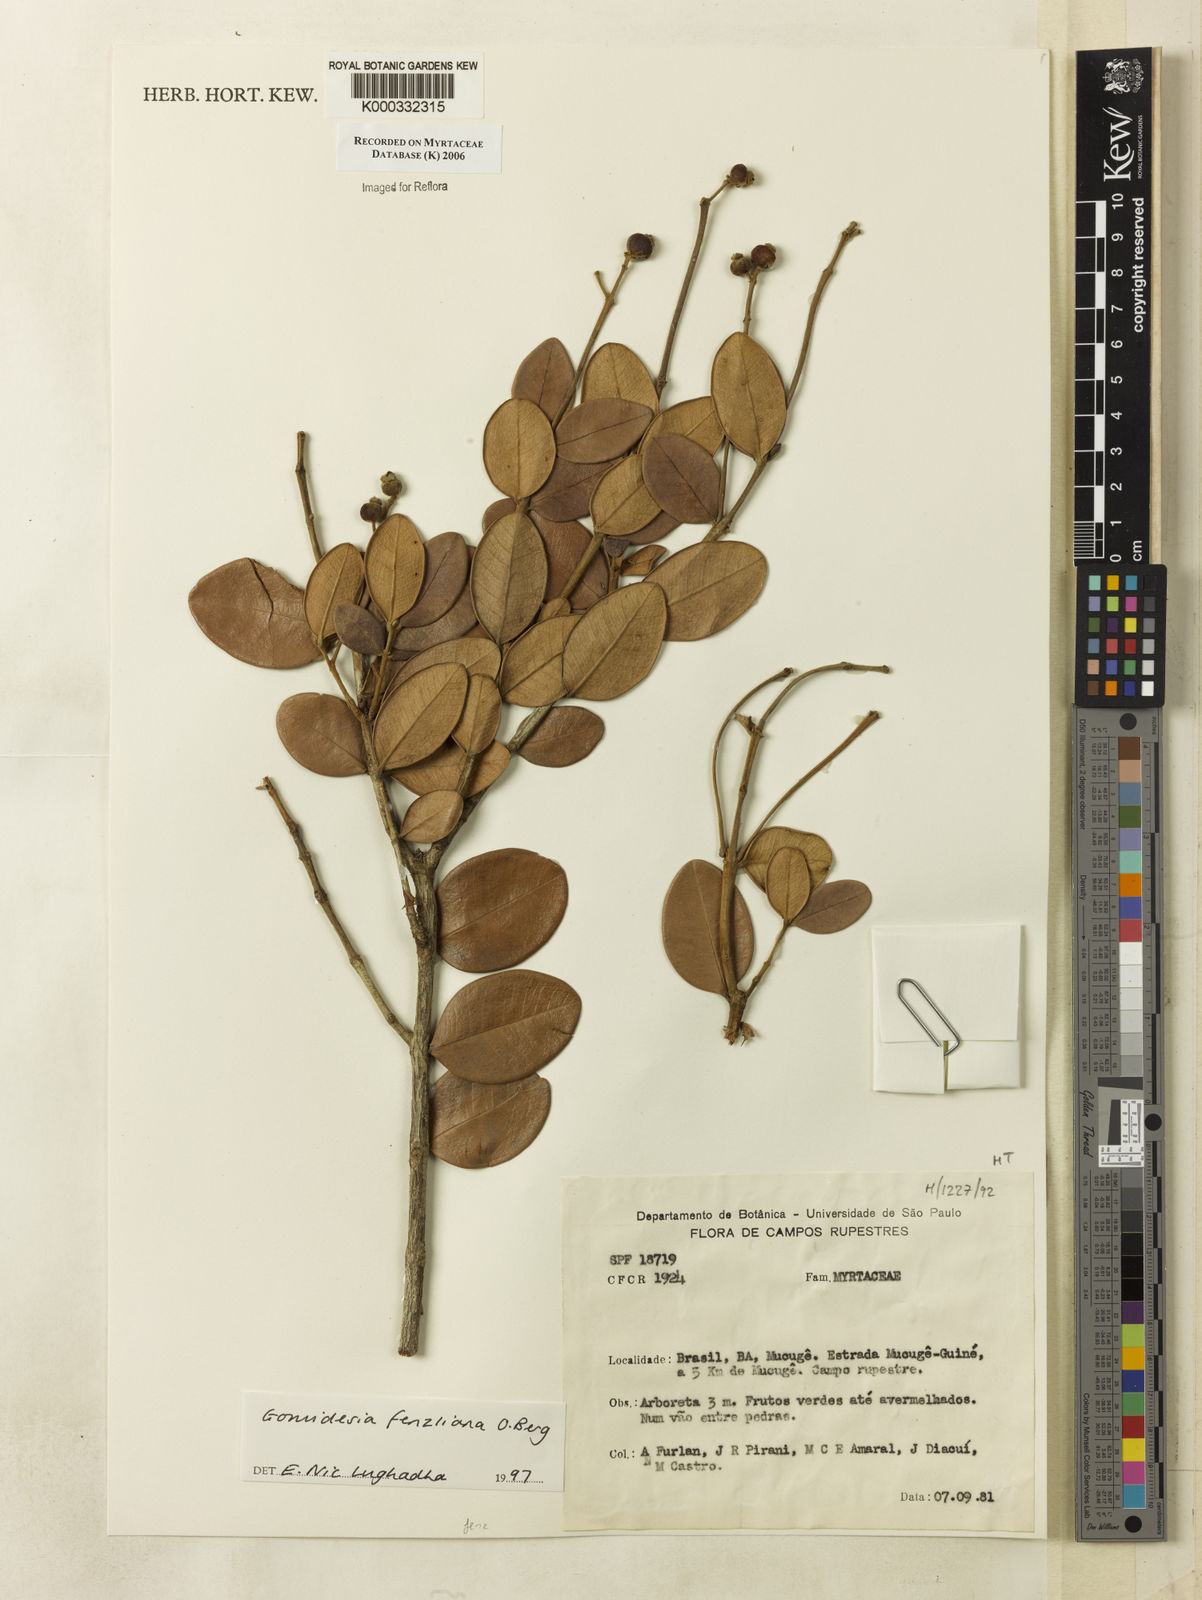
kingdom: Plantae
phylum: Tracheophyta
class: Magnoliopsida
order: Myrtales
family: Myrtaceae
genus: Myrcia
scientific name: Myrcia ilheosensis
